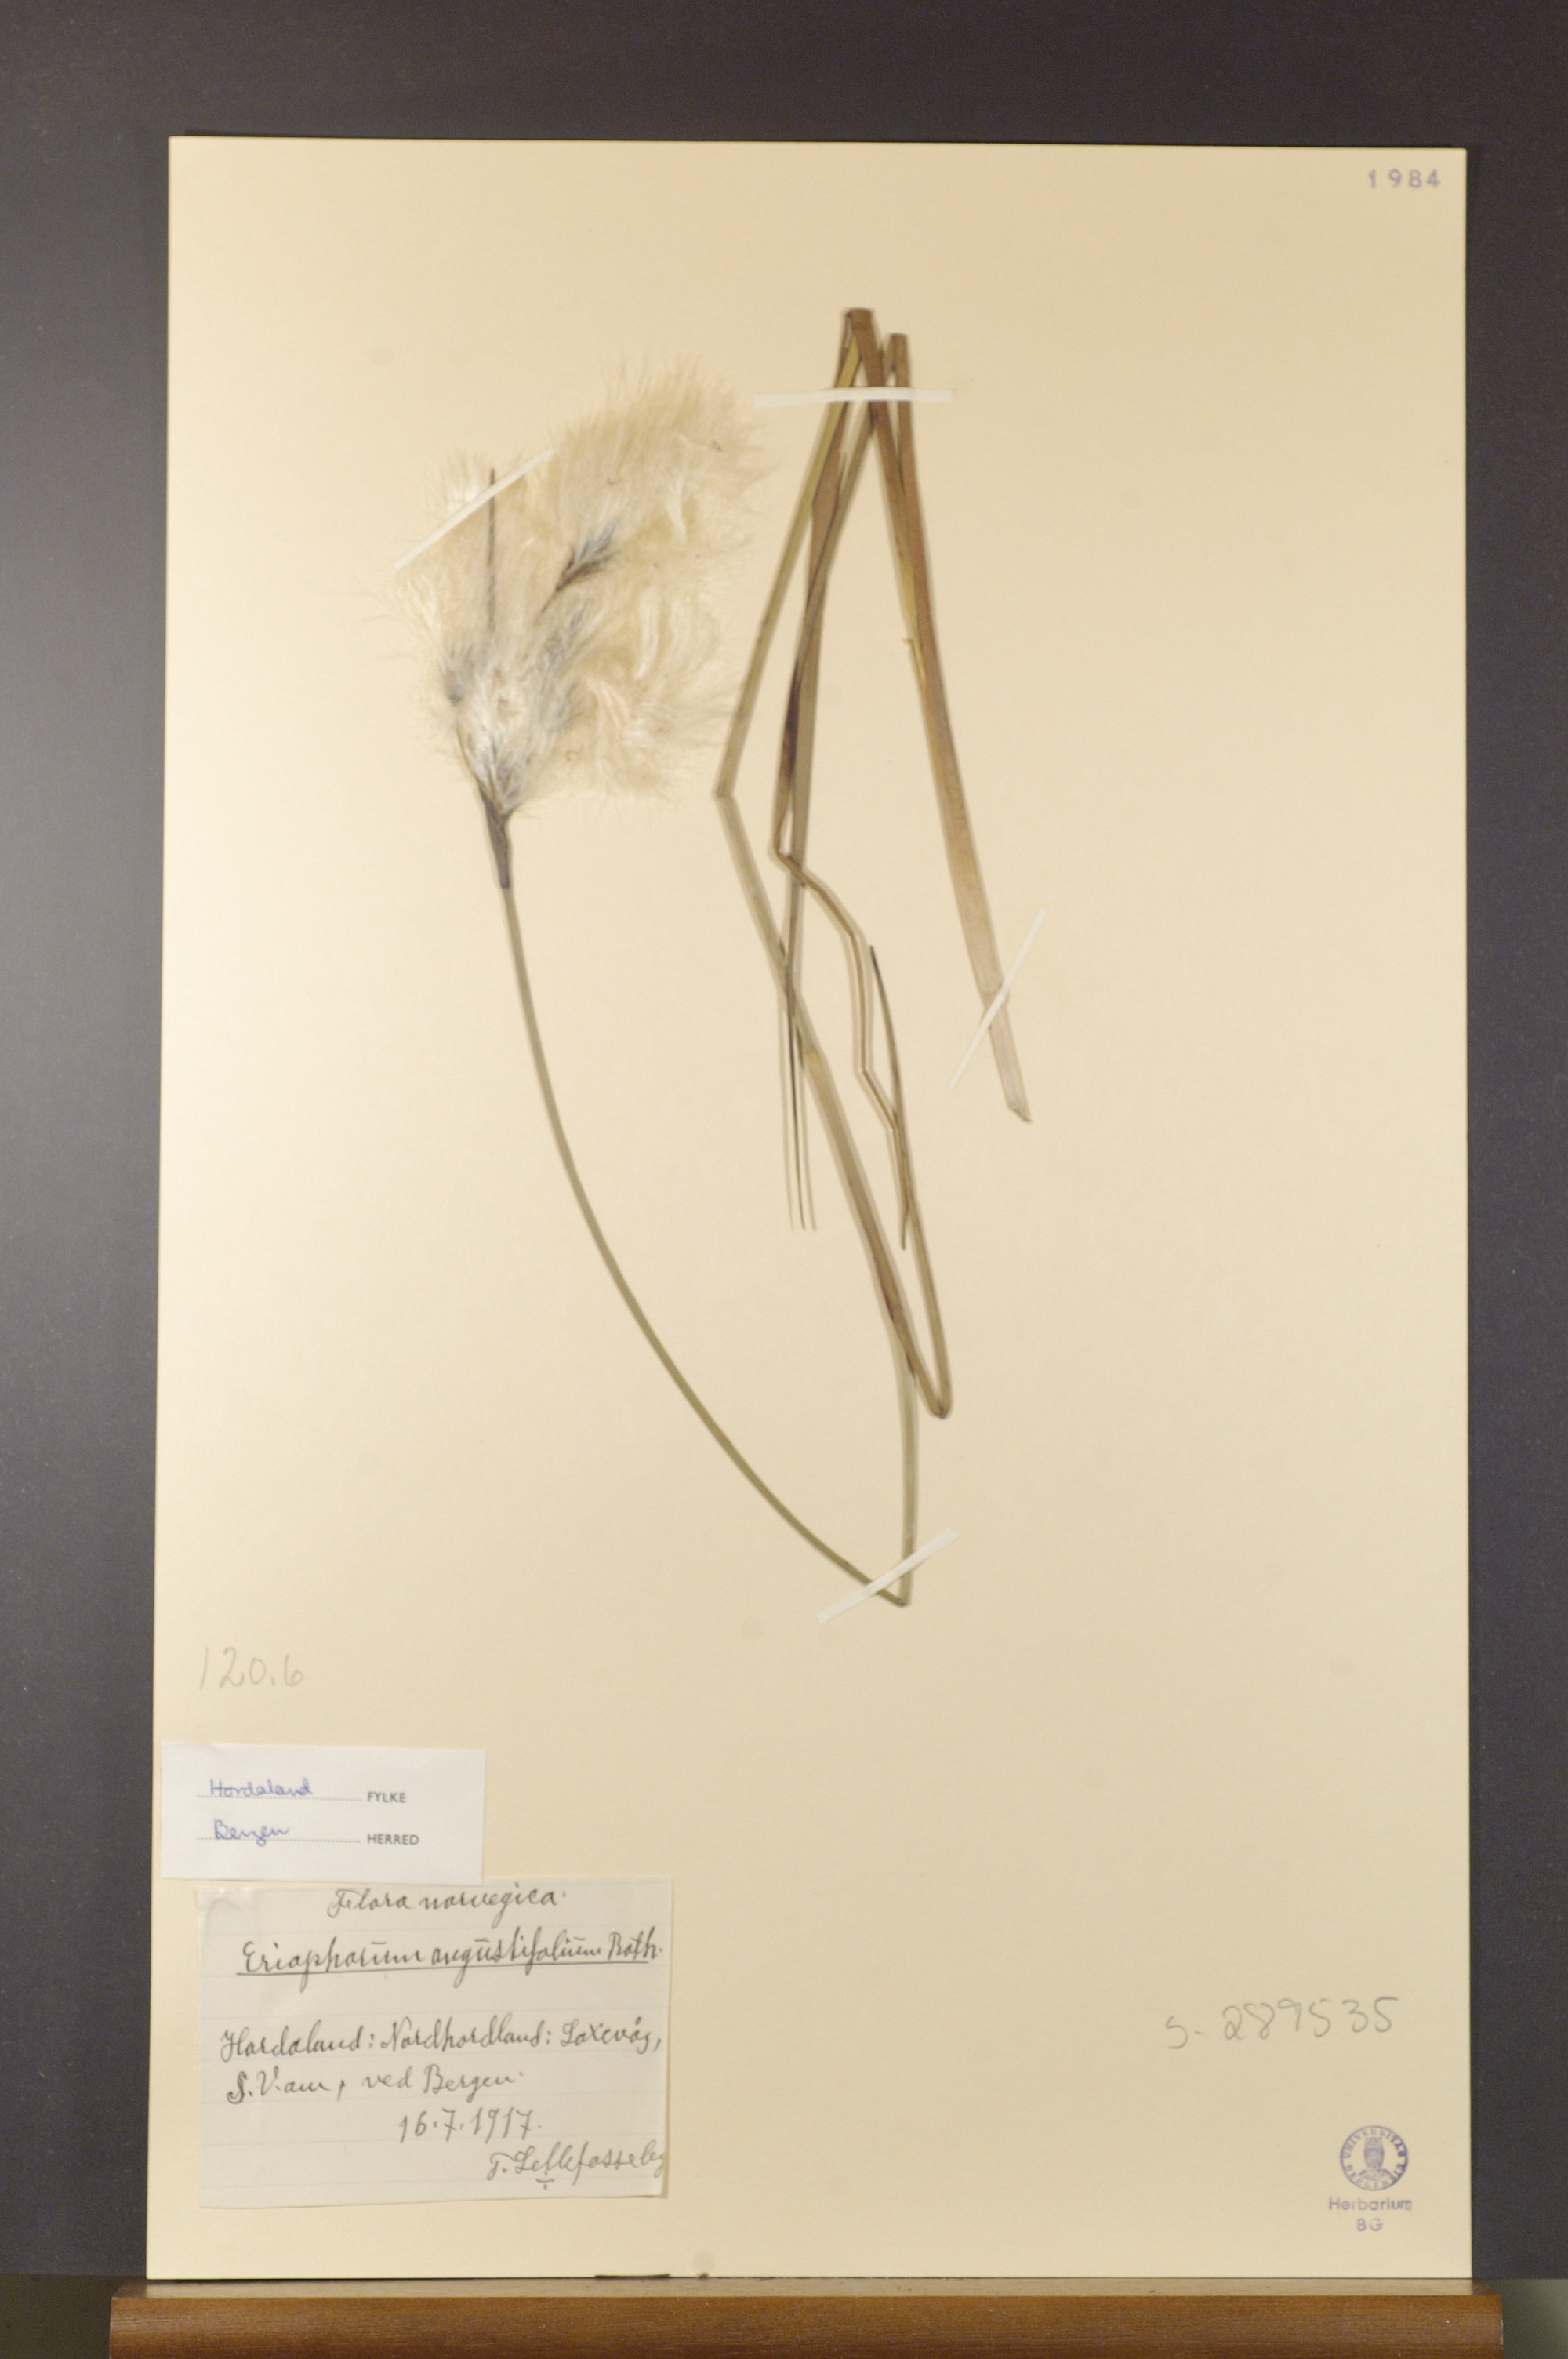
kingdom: Plantae
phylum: Tracheophyta
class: Liliopsida
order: Poales
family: Cyperaceae
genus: Eriophorum
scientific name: Eriophorum angustifolium
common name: Common cottongrass
